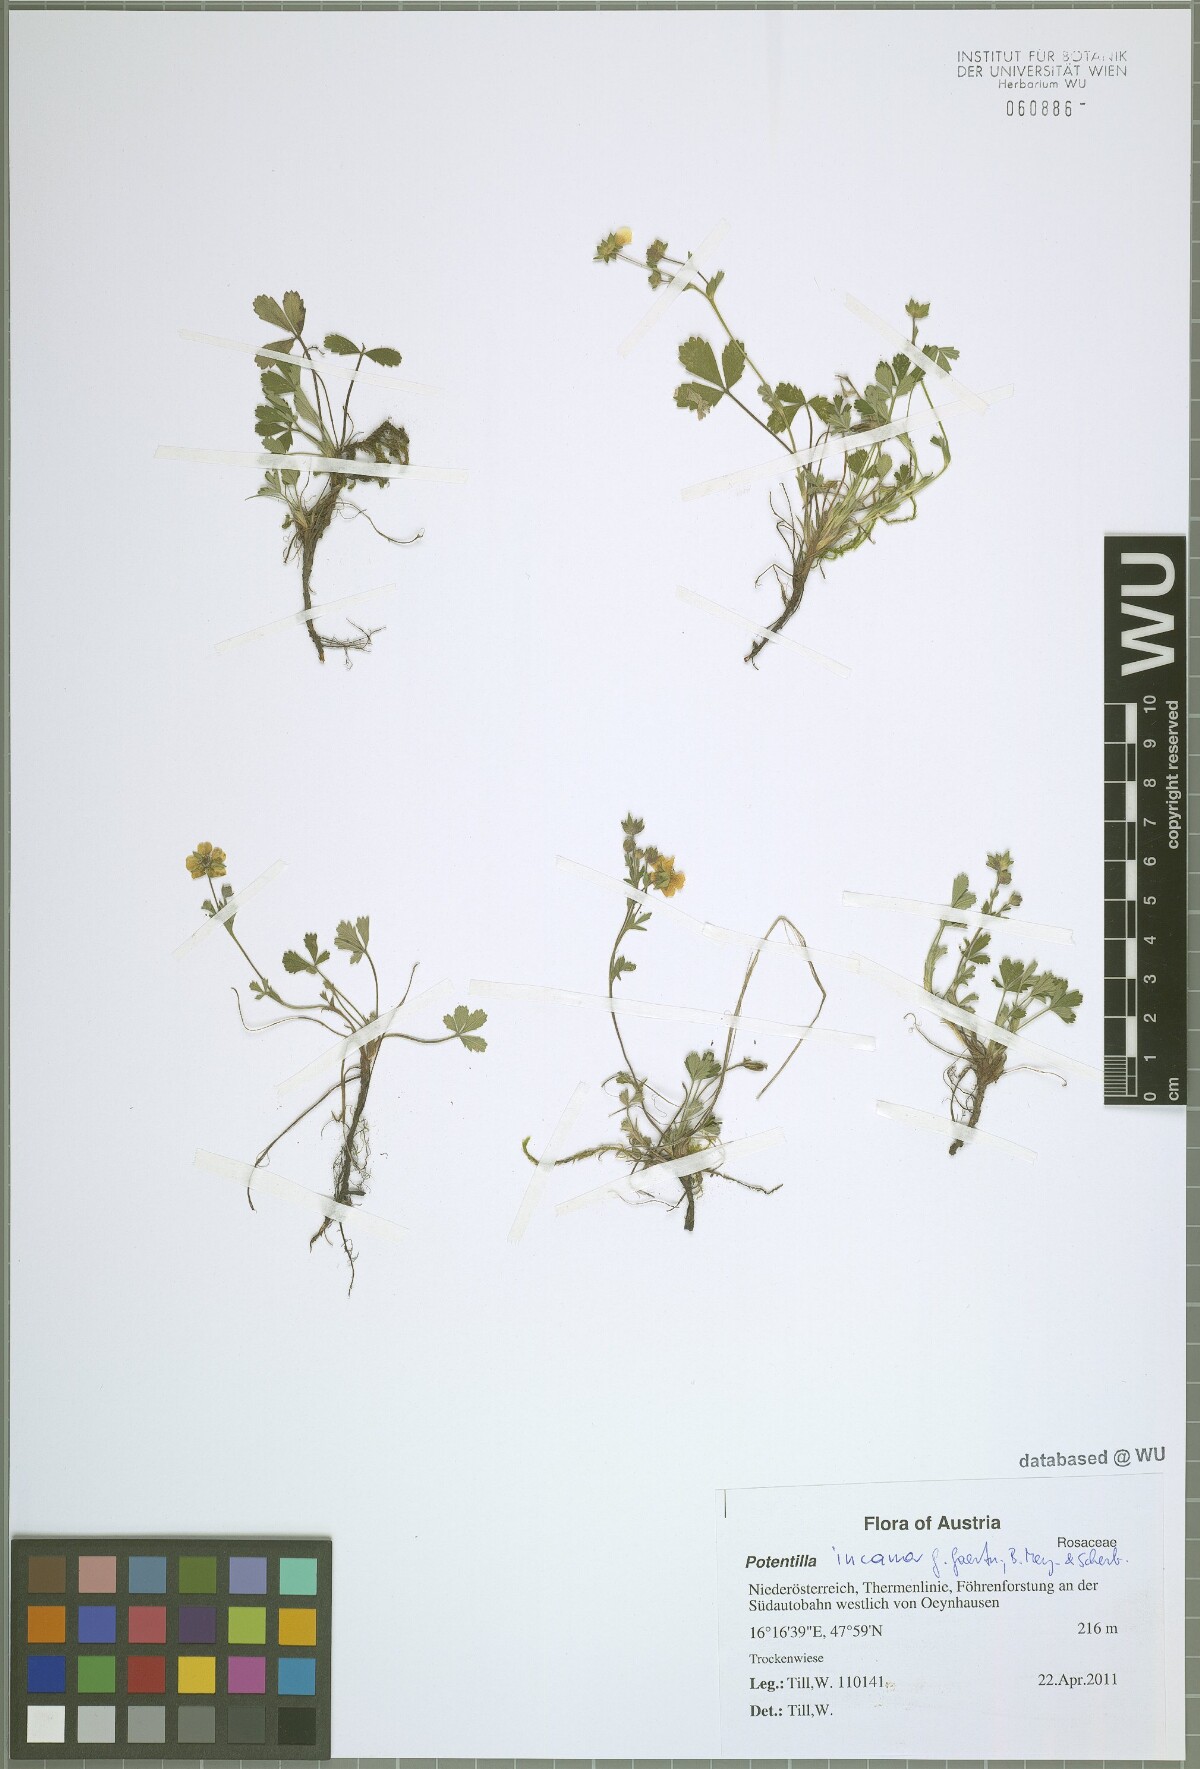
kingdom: Plantae
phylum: Tracheophyta
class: Magnoliopsida
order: Rosales
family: Rosaceae
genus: Potentilla
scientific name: Potentilla cinerea
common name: Ashy cinquefoil
